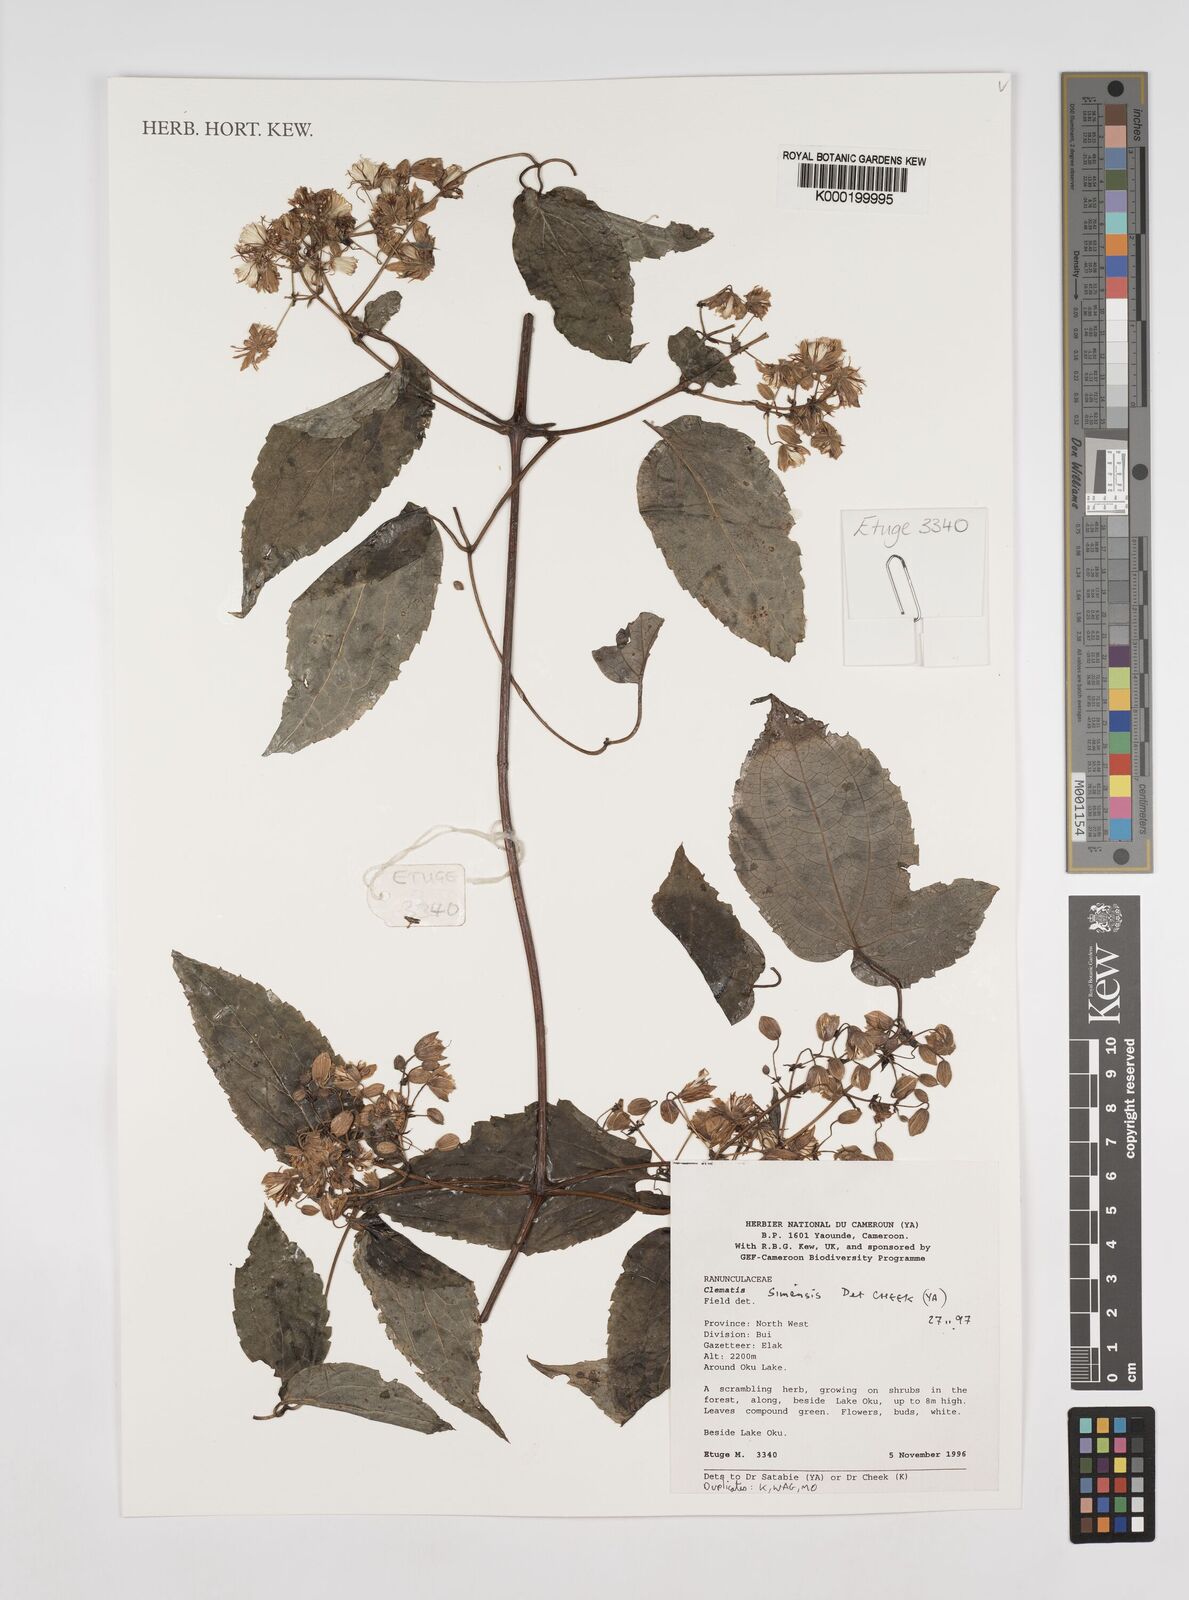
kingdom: Plantae
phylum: Tracheophyta
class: Magnoliopsida
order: Ranunculales
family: Ranunculaceae
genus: Clematis
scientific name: Clematis simensis
